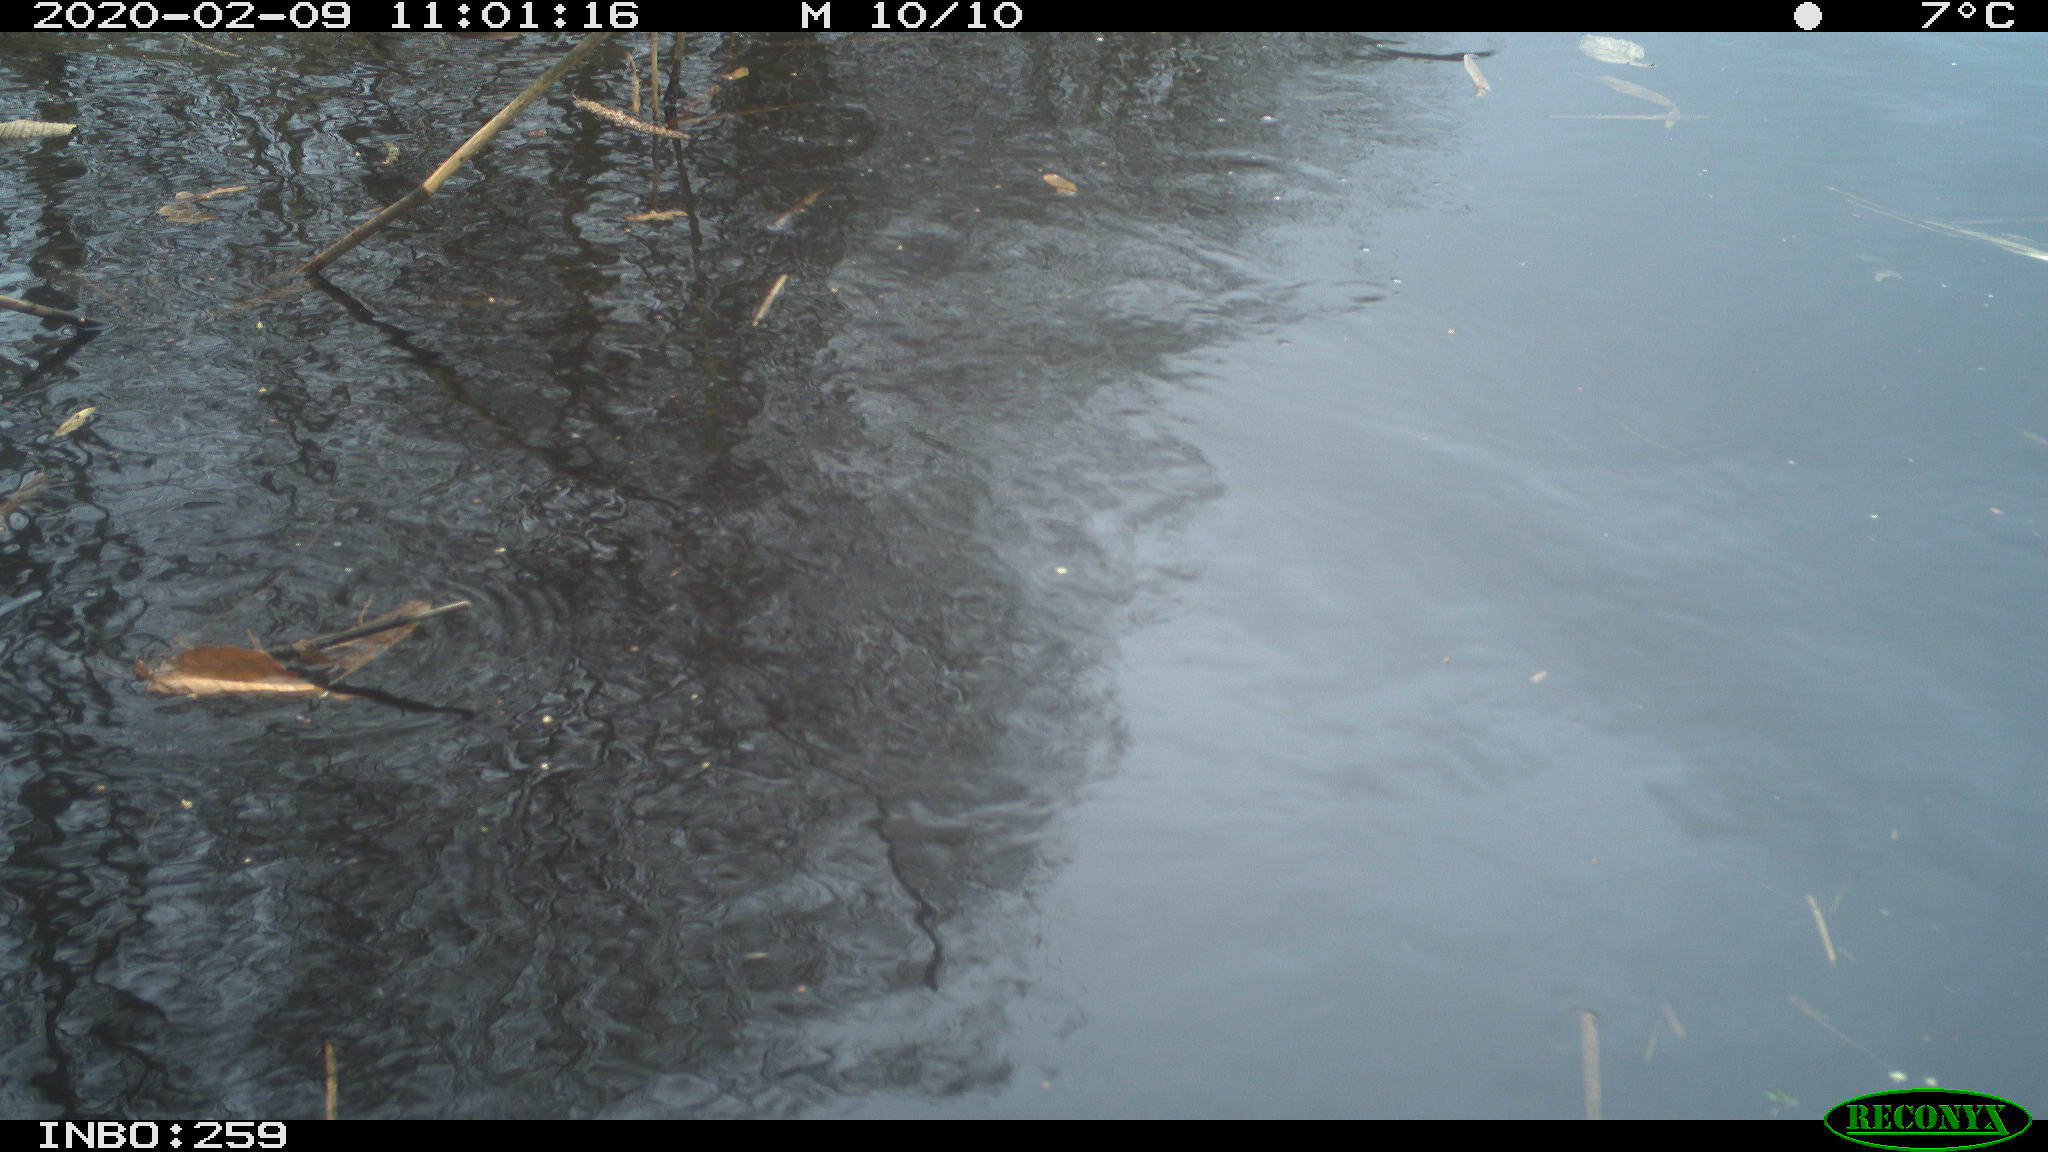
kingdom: Animalia
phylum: Chordata
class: Aves
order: Gruiformes
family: Rallidae
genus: Gallinula
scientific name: Gallinula chloropus
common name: Common moorhen
